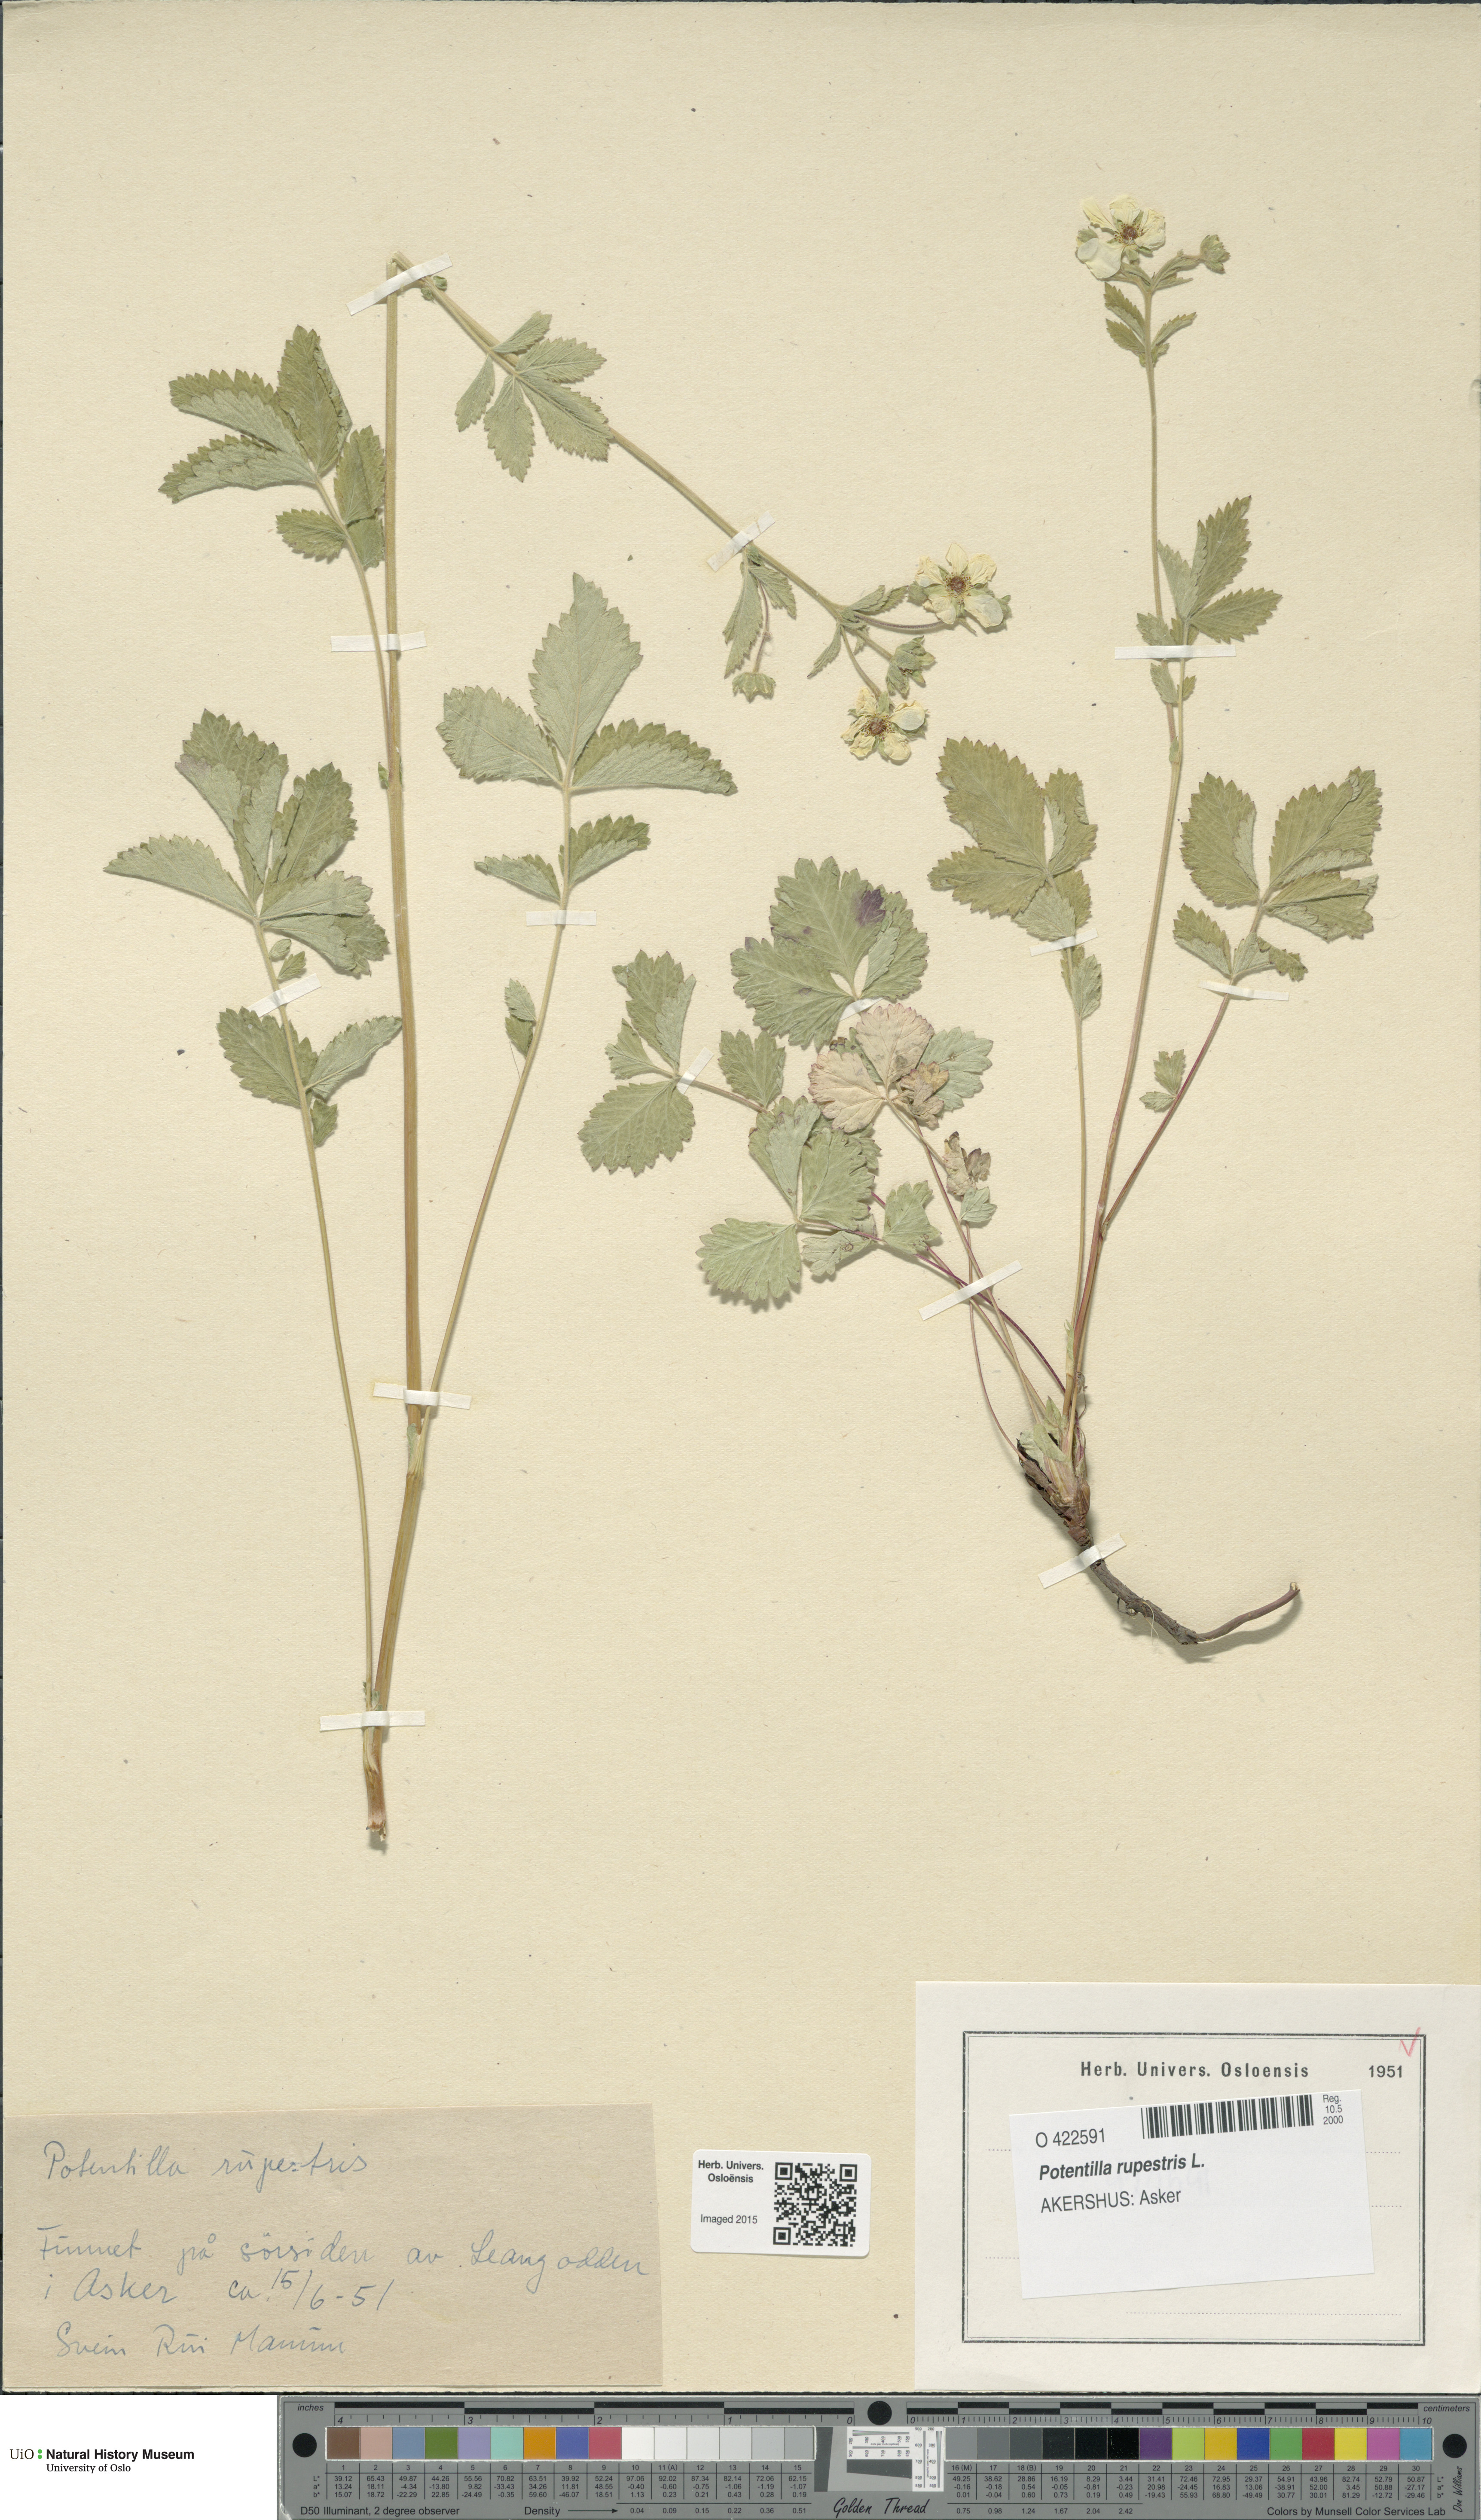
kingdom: Plantae
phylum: Tracheophyta
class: Magnoliopsida
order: Rosales
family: Rosaceae
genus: Drymocallis
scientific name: Drymocallis rupestris
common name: Rock cinquefoil
